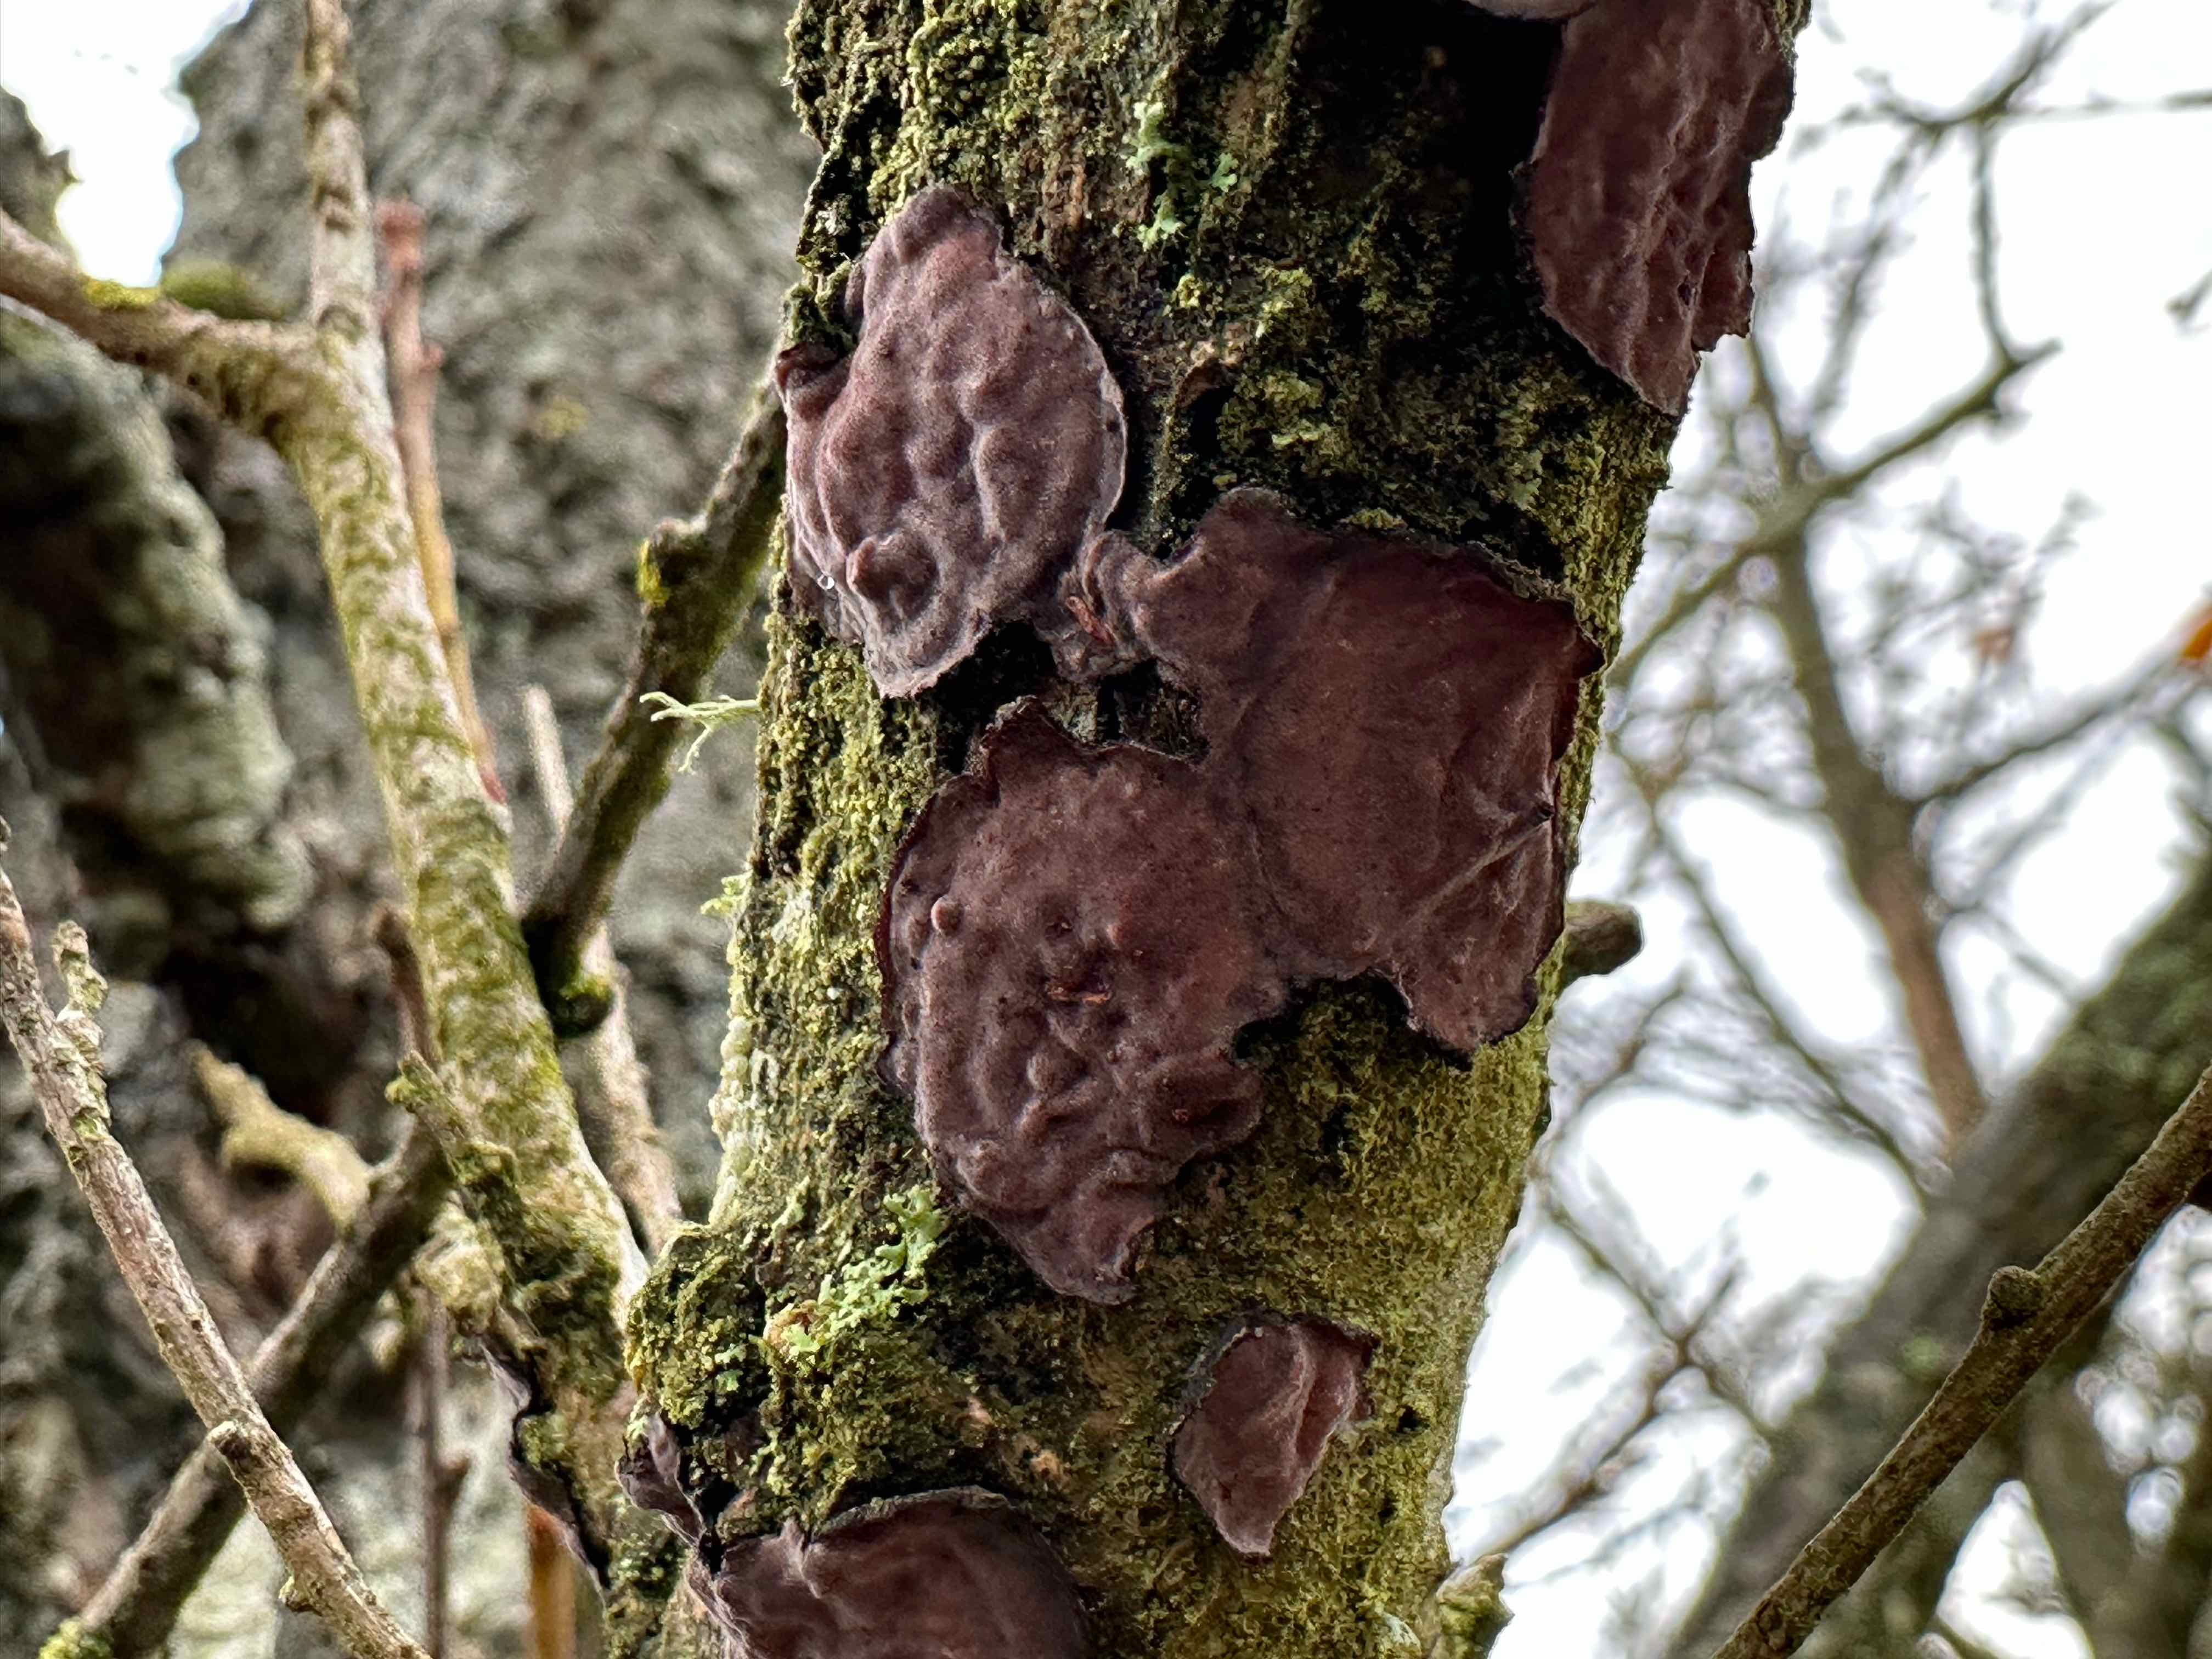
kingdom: Fungi
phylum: Basidiomycota
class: Agaricomycetes
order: Russulales
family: Peniophoraceae
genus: Peniophora
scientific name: Peniophora quercina
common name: ege-voksskind
